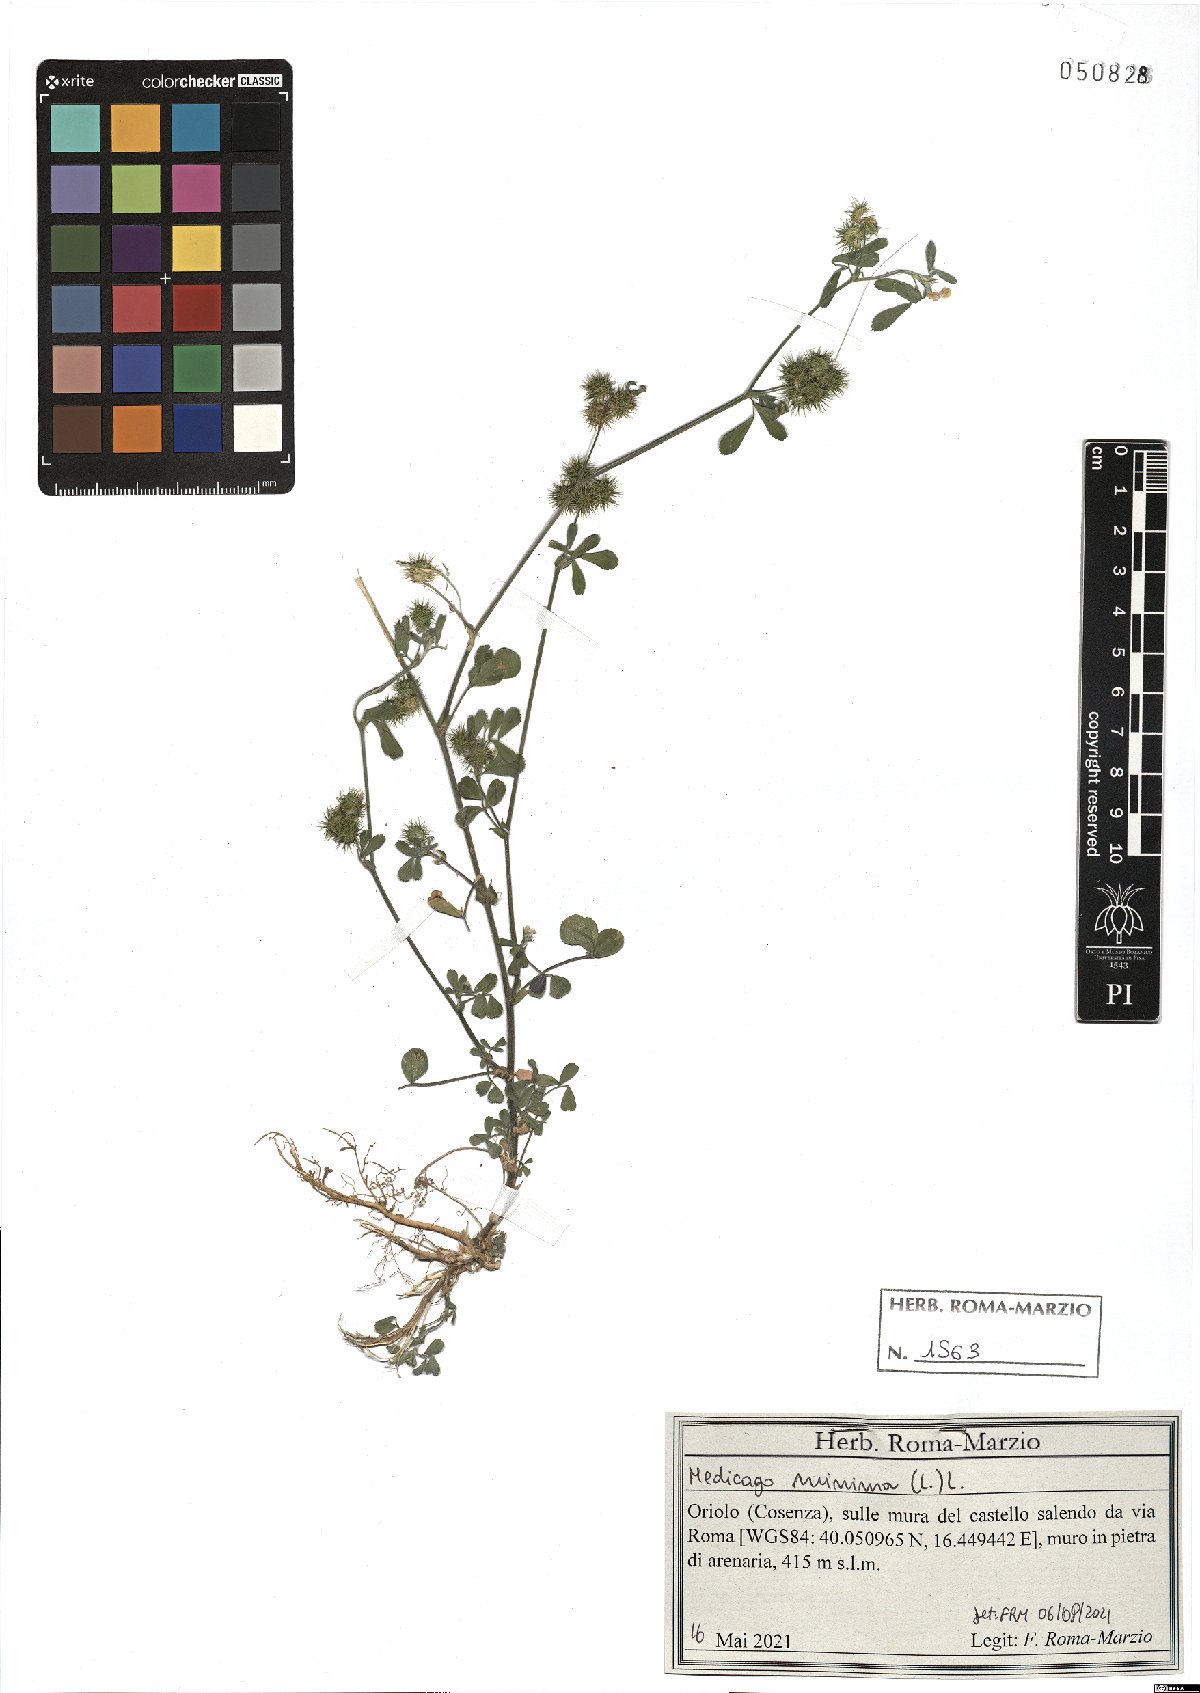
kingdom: Plantae
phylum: Tracheophyta
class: Magnoliopsida
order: Fabales
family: Fabaceae
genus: Medicago
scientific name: Medicago minima
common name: Little bur-clover
